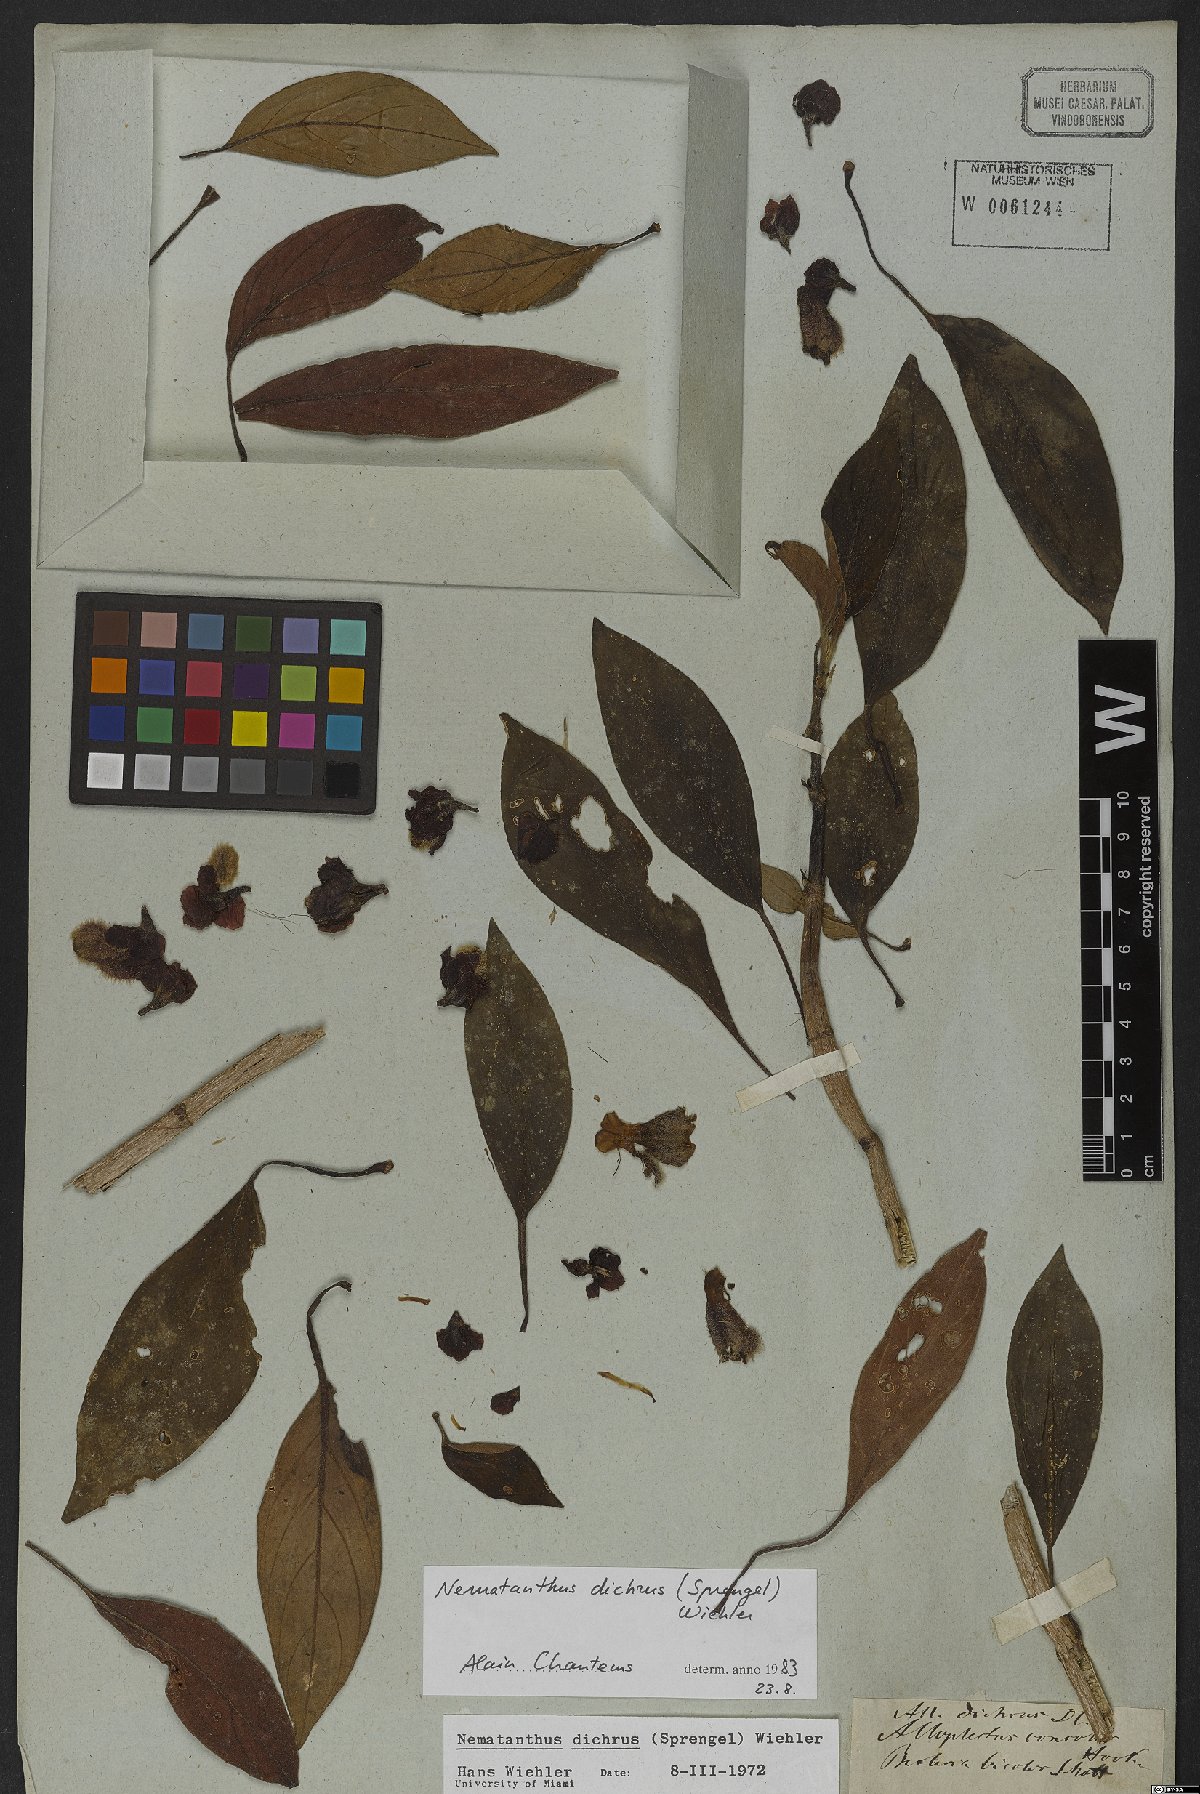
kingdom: Plantae
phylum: Tracheophyta
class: Magnoliopsida
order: Lamiales
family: Gesneriaceae
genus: Nematanthus
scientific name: Nematanthus lanceolatus
